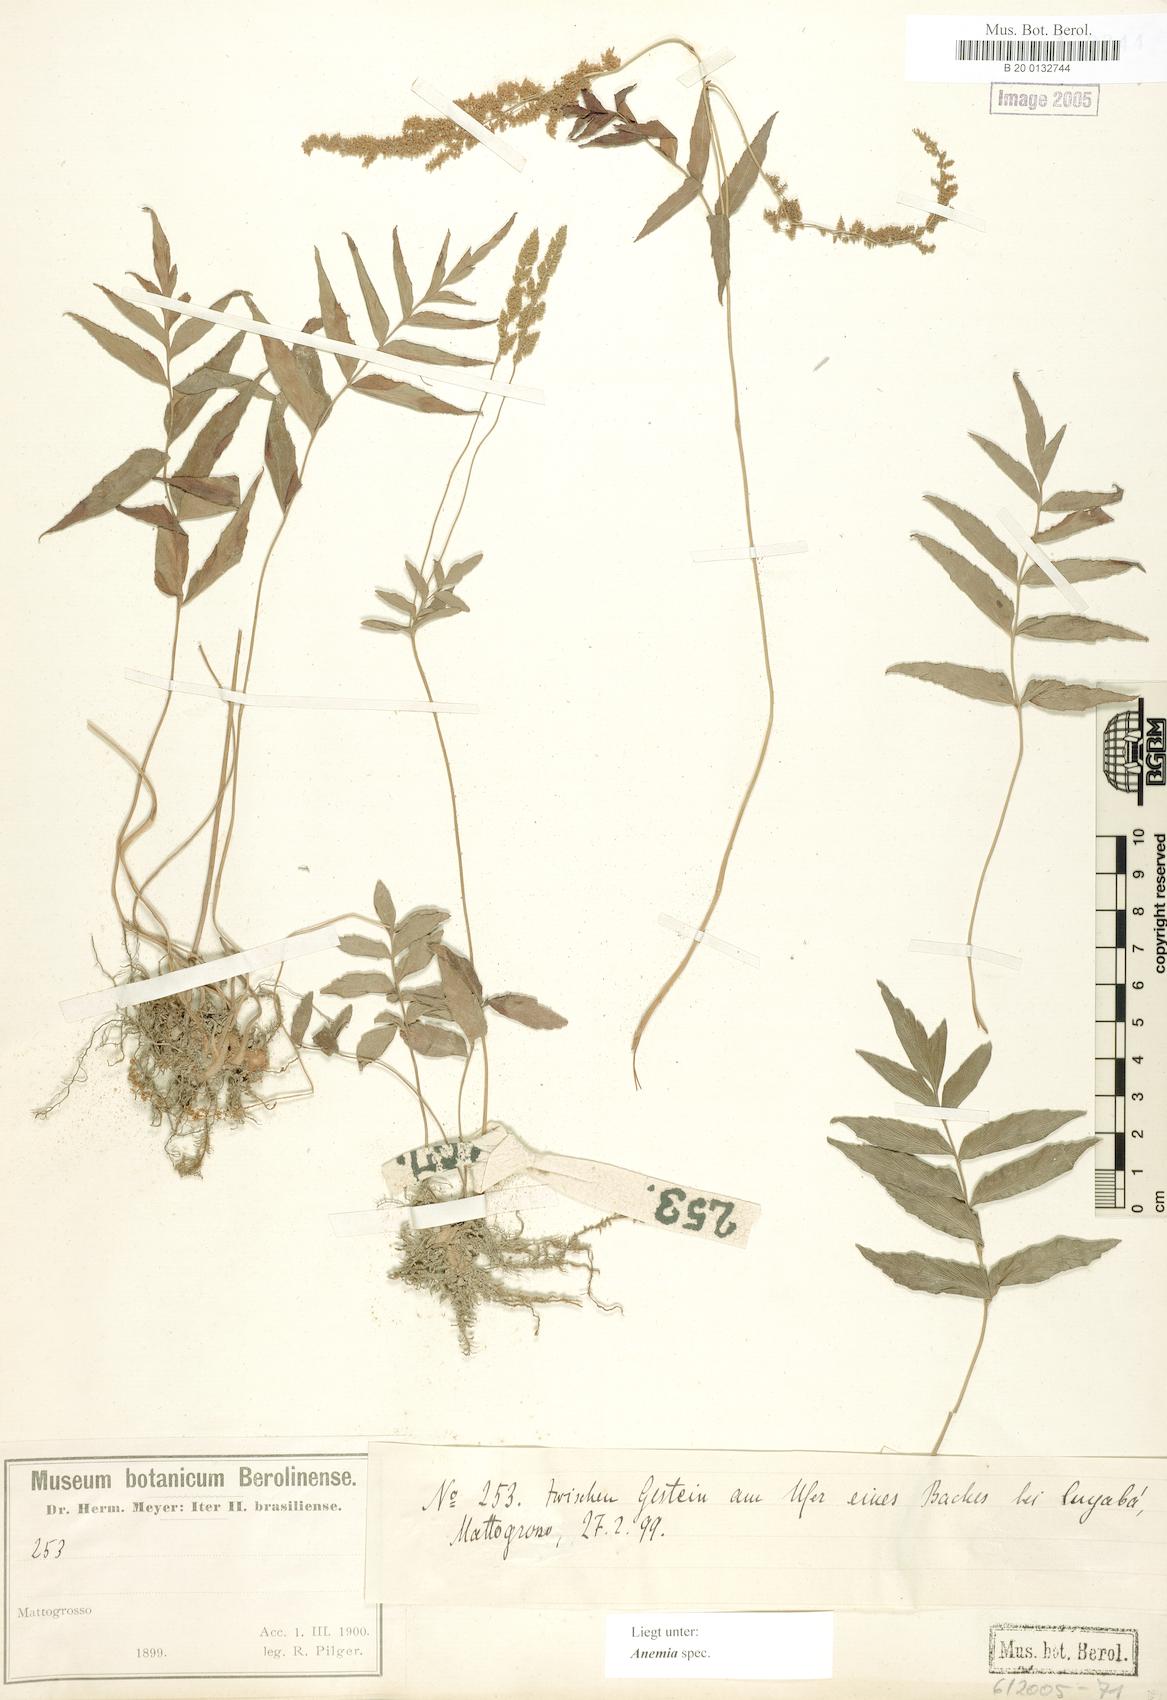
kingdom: Plantae
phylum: Tracheophyta
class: Polypodiopsida
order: Schizaeales
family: Anemiaceae
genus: Anemia
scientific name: Anemia
